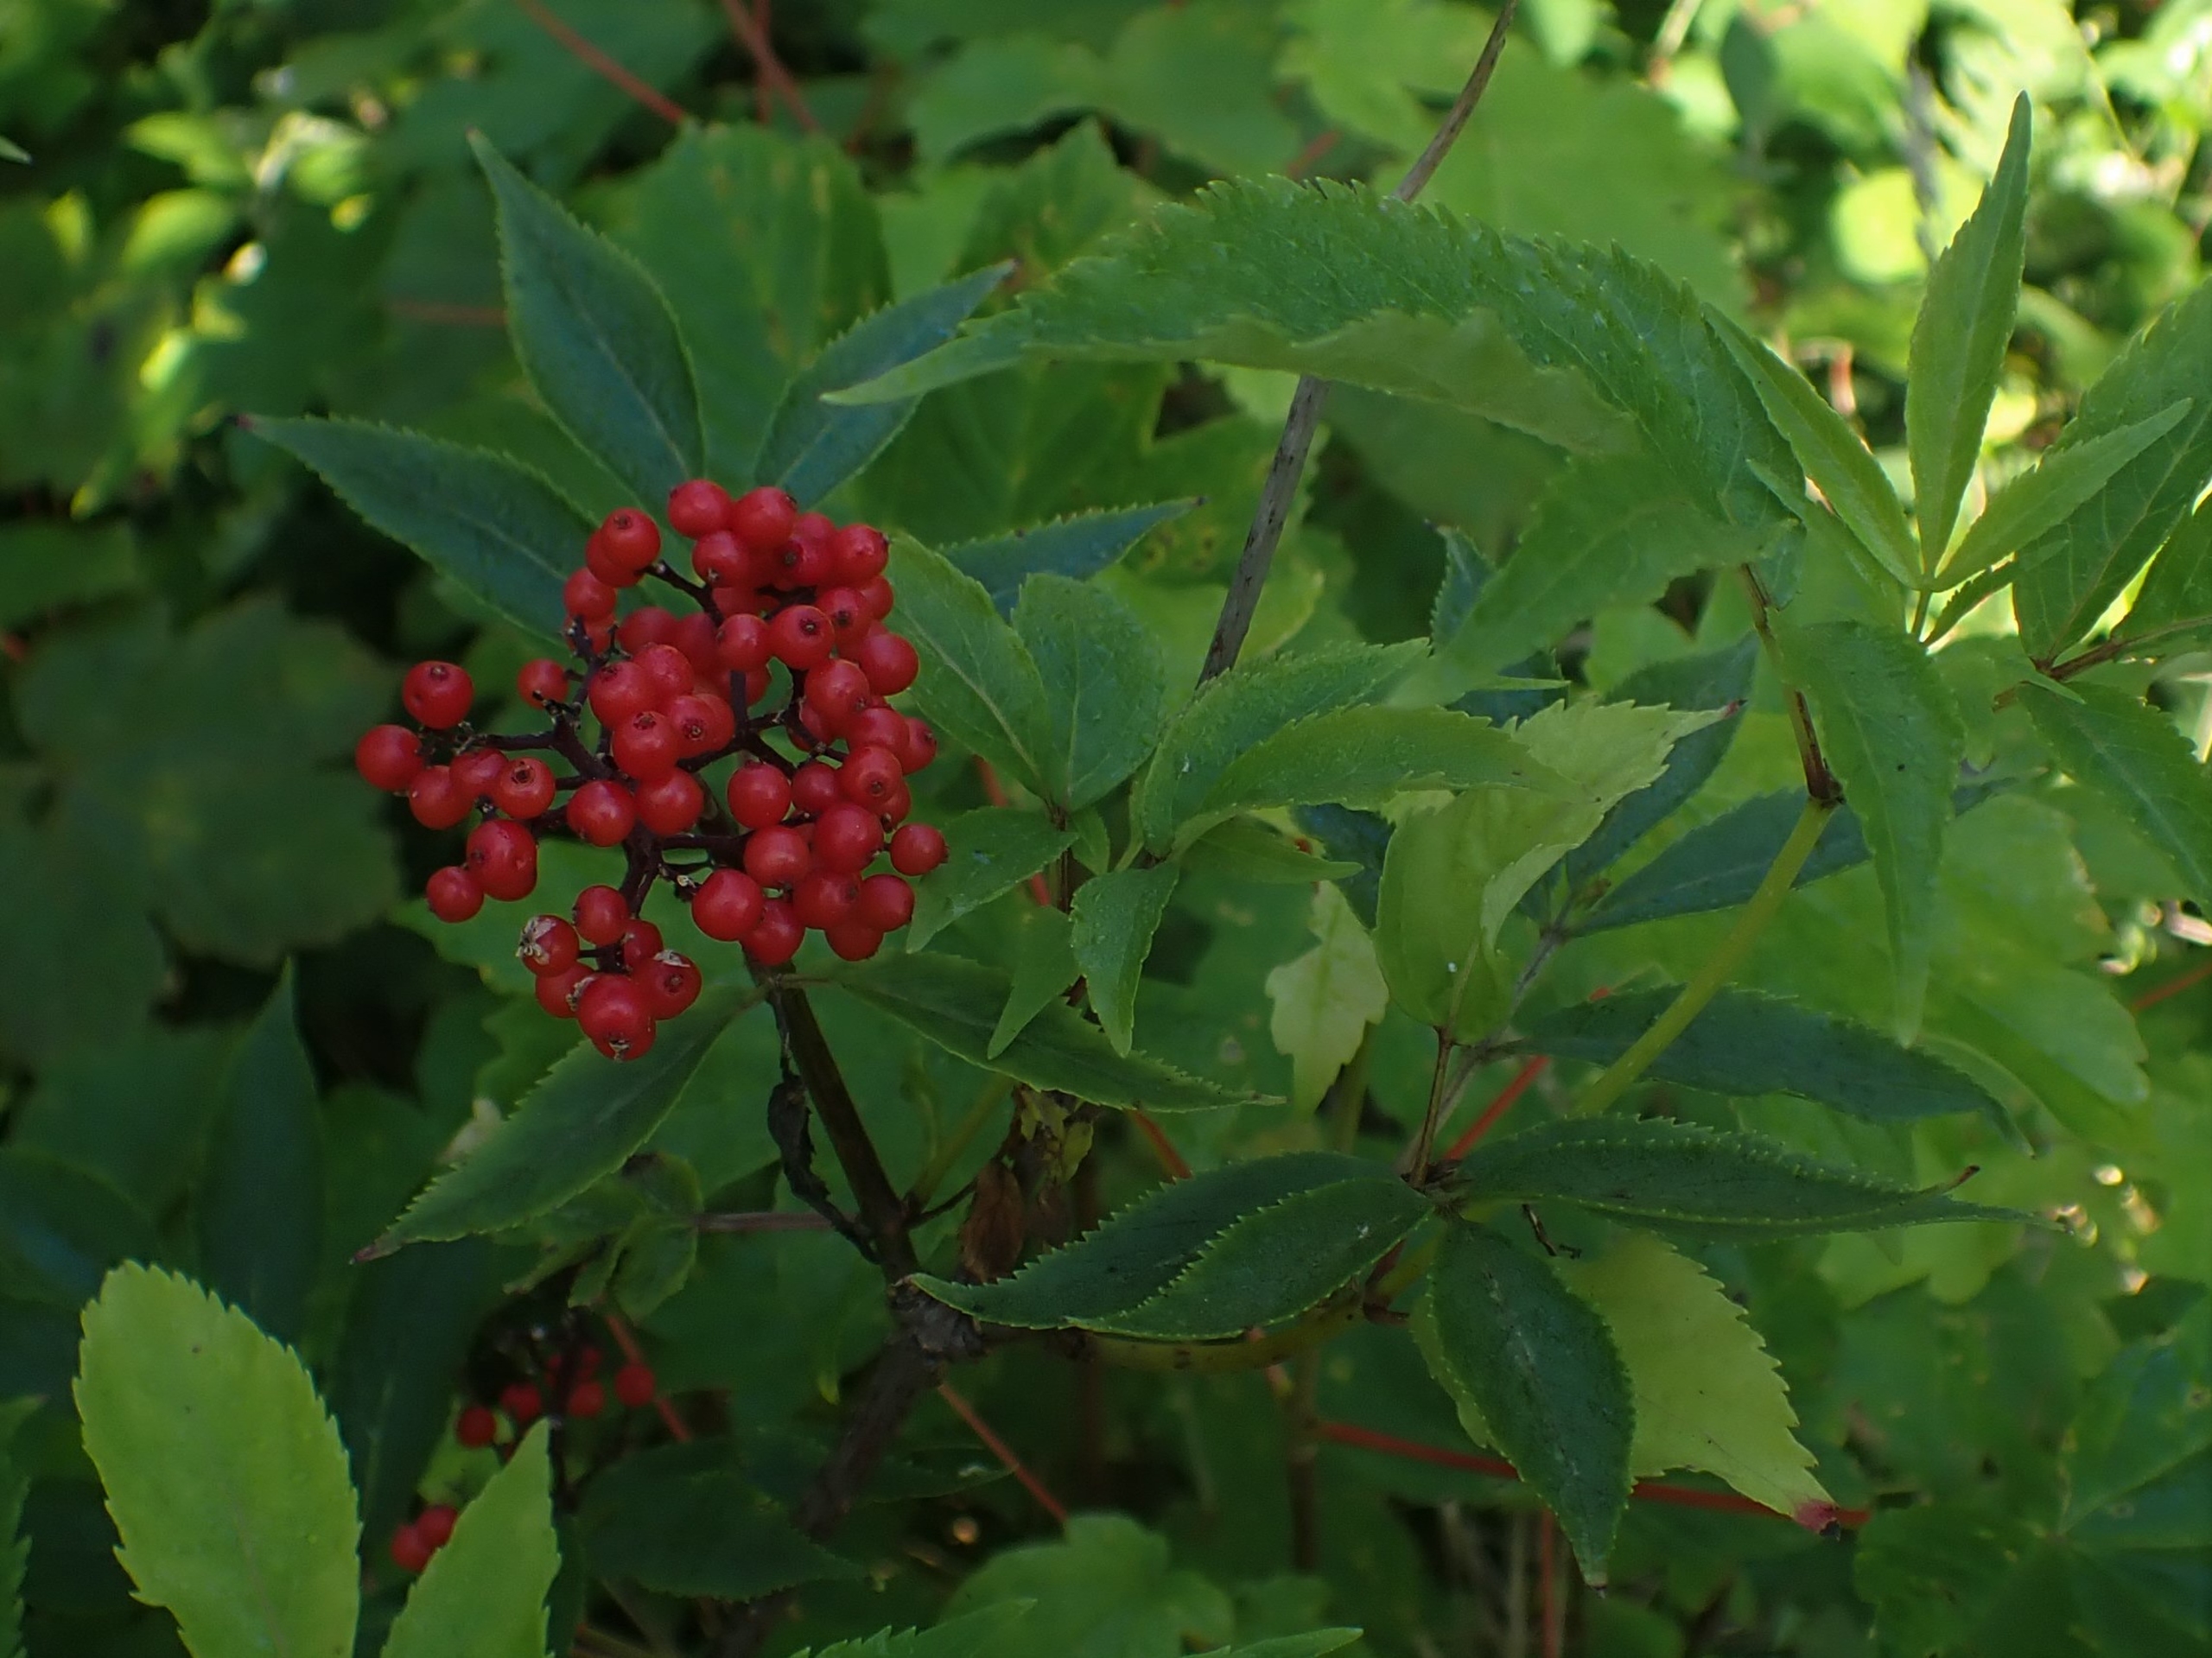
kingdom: Plantae
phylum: Tracheophyta
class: Magnoliopsida
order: Dipsacales
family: Viburnaceae
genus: Sambucus
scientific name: Sambucus racemosa
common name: Drue-hyld
